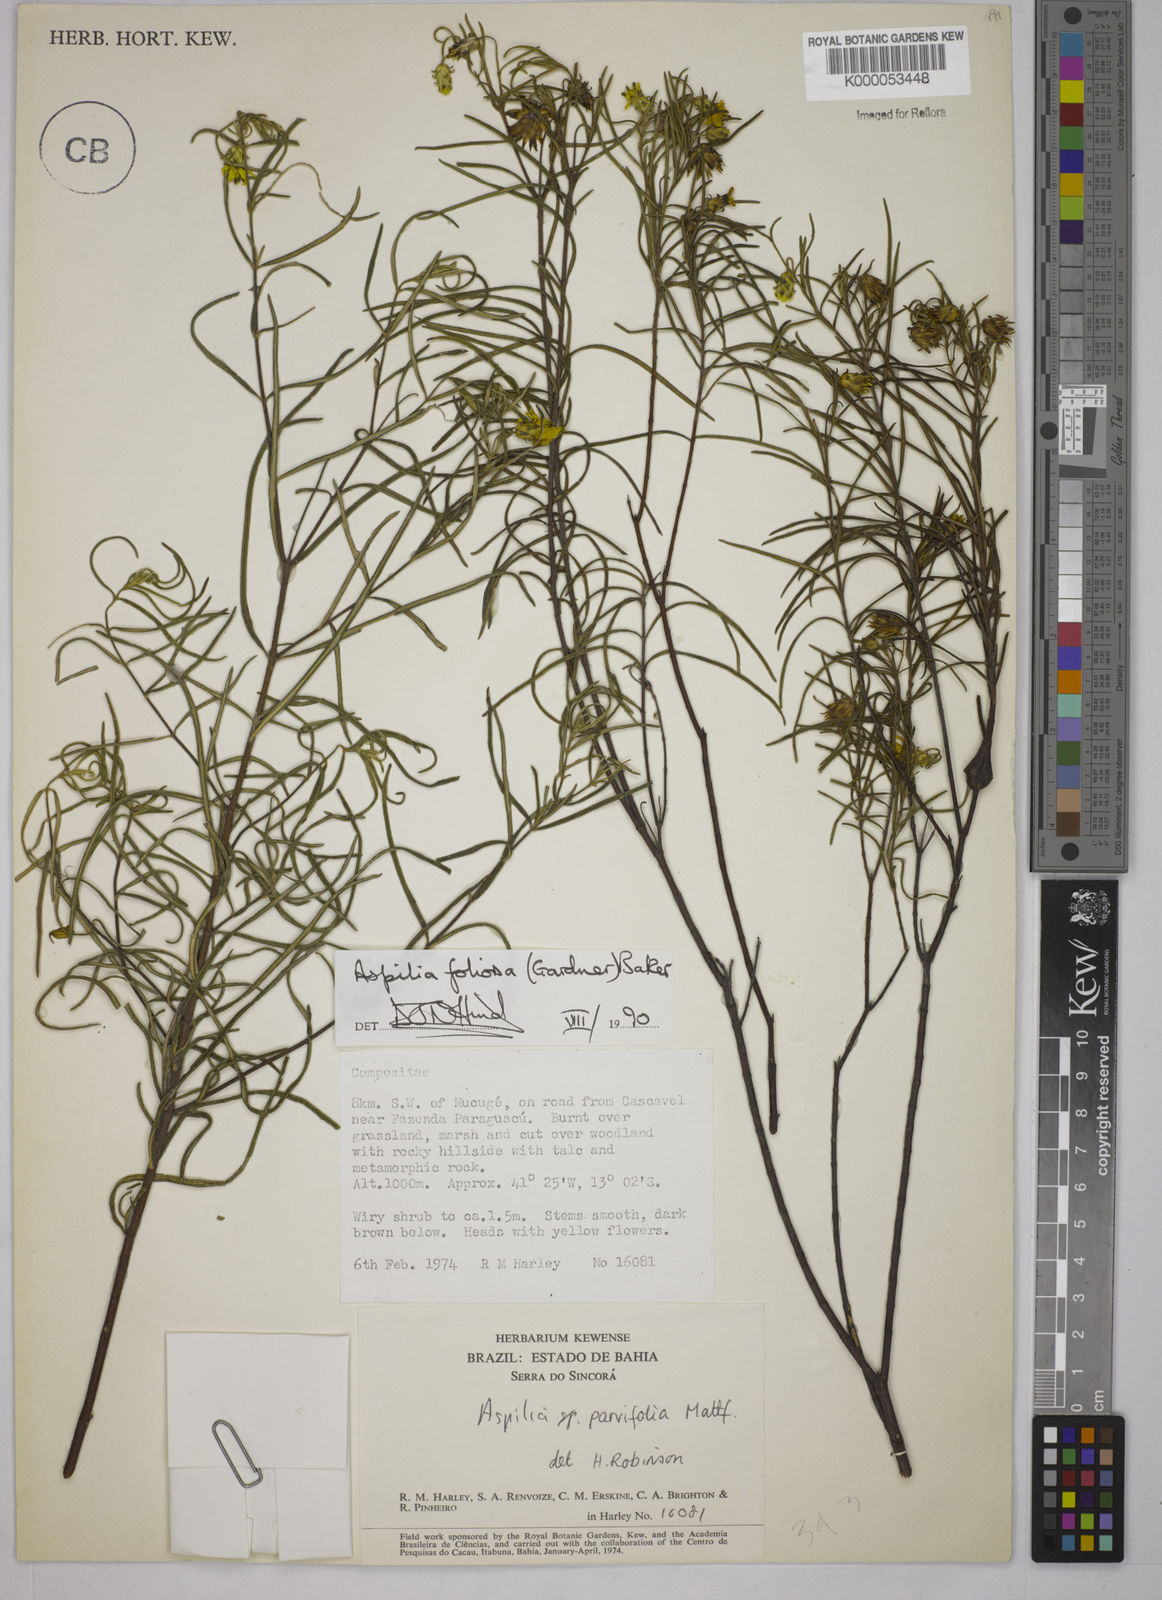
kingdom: Plantae
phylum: Tracheophyta
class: Magnoliopsida
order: Asterales
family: Asteraceae
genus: Aspilia
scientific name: Aspilia
